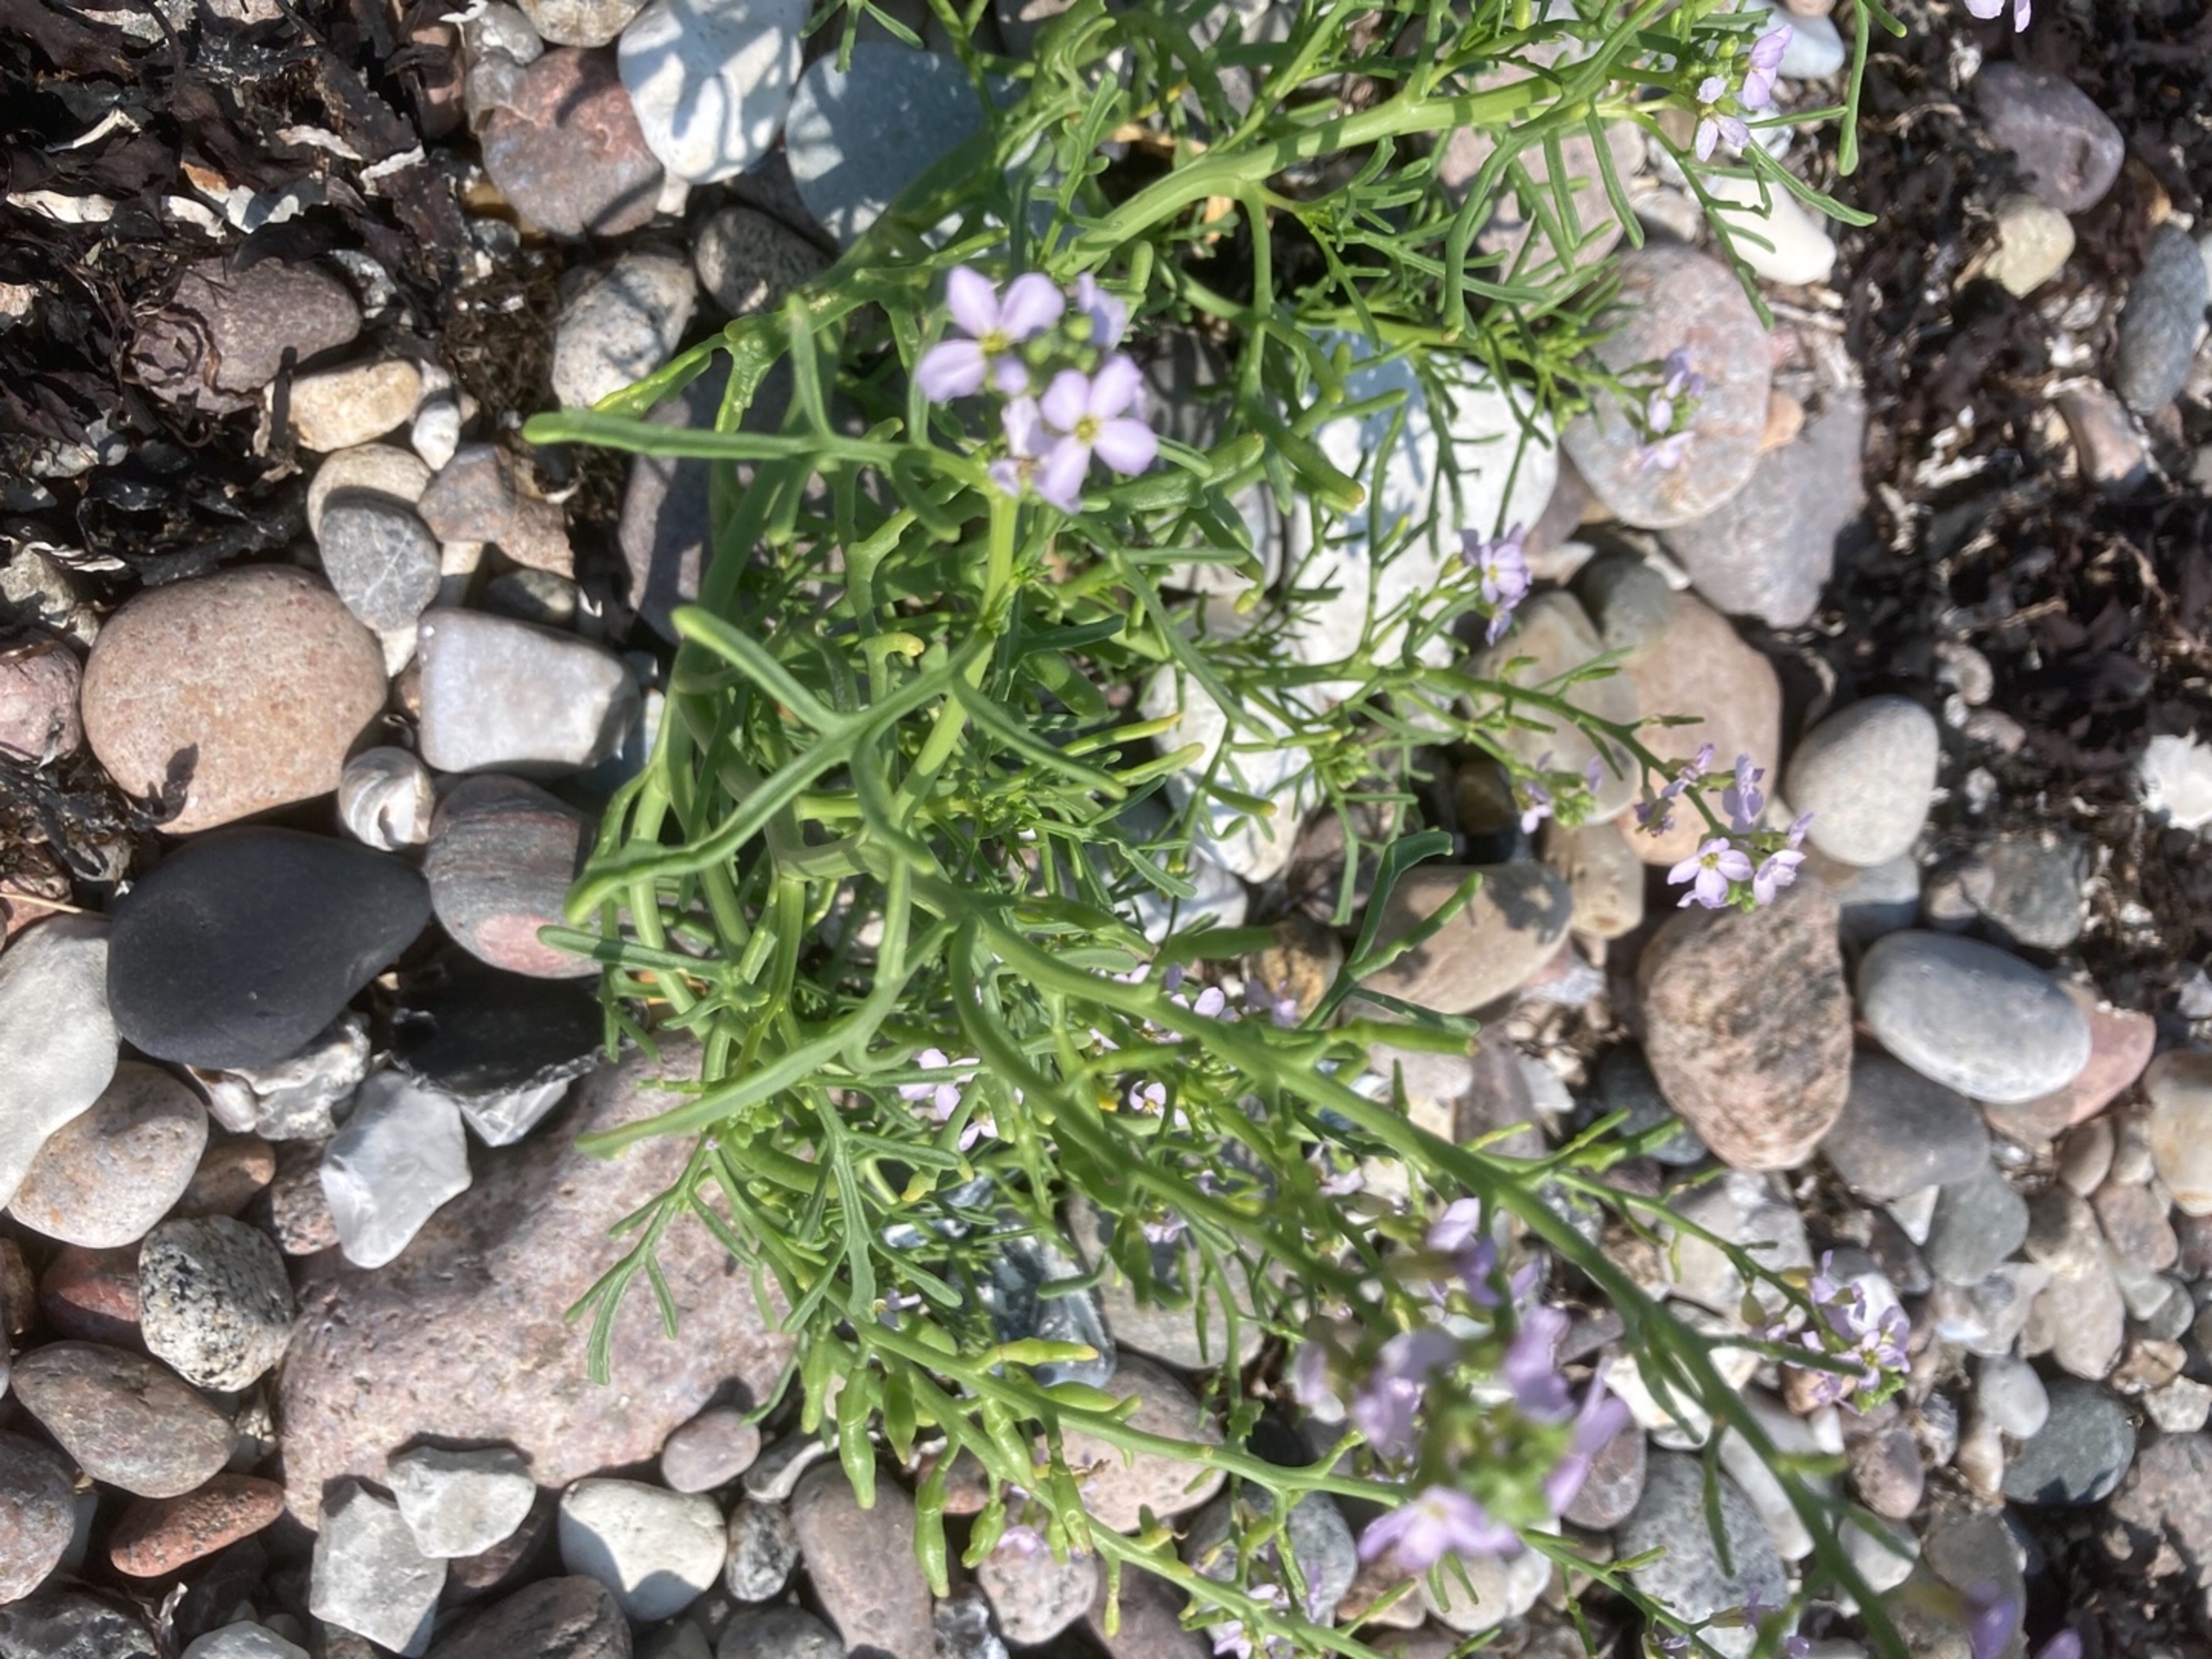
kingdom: Plantae
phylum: Tracheophyta
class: Magnoliopsida
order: Brassicales
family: Brassicaceae
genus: Cakile
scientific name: Cakile maritima
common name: Østersø-strandsennep
